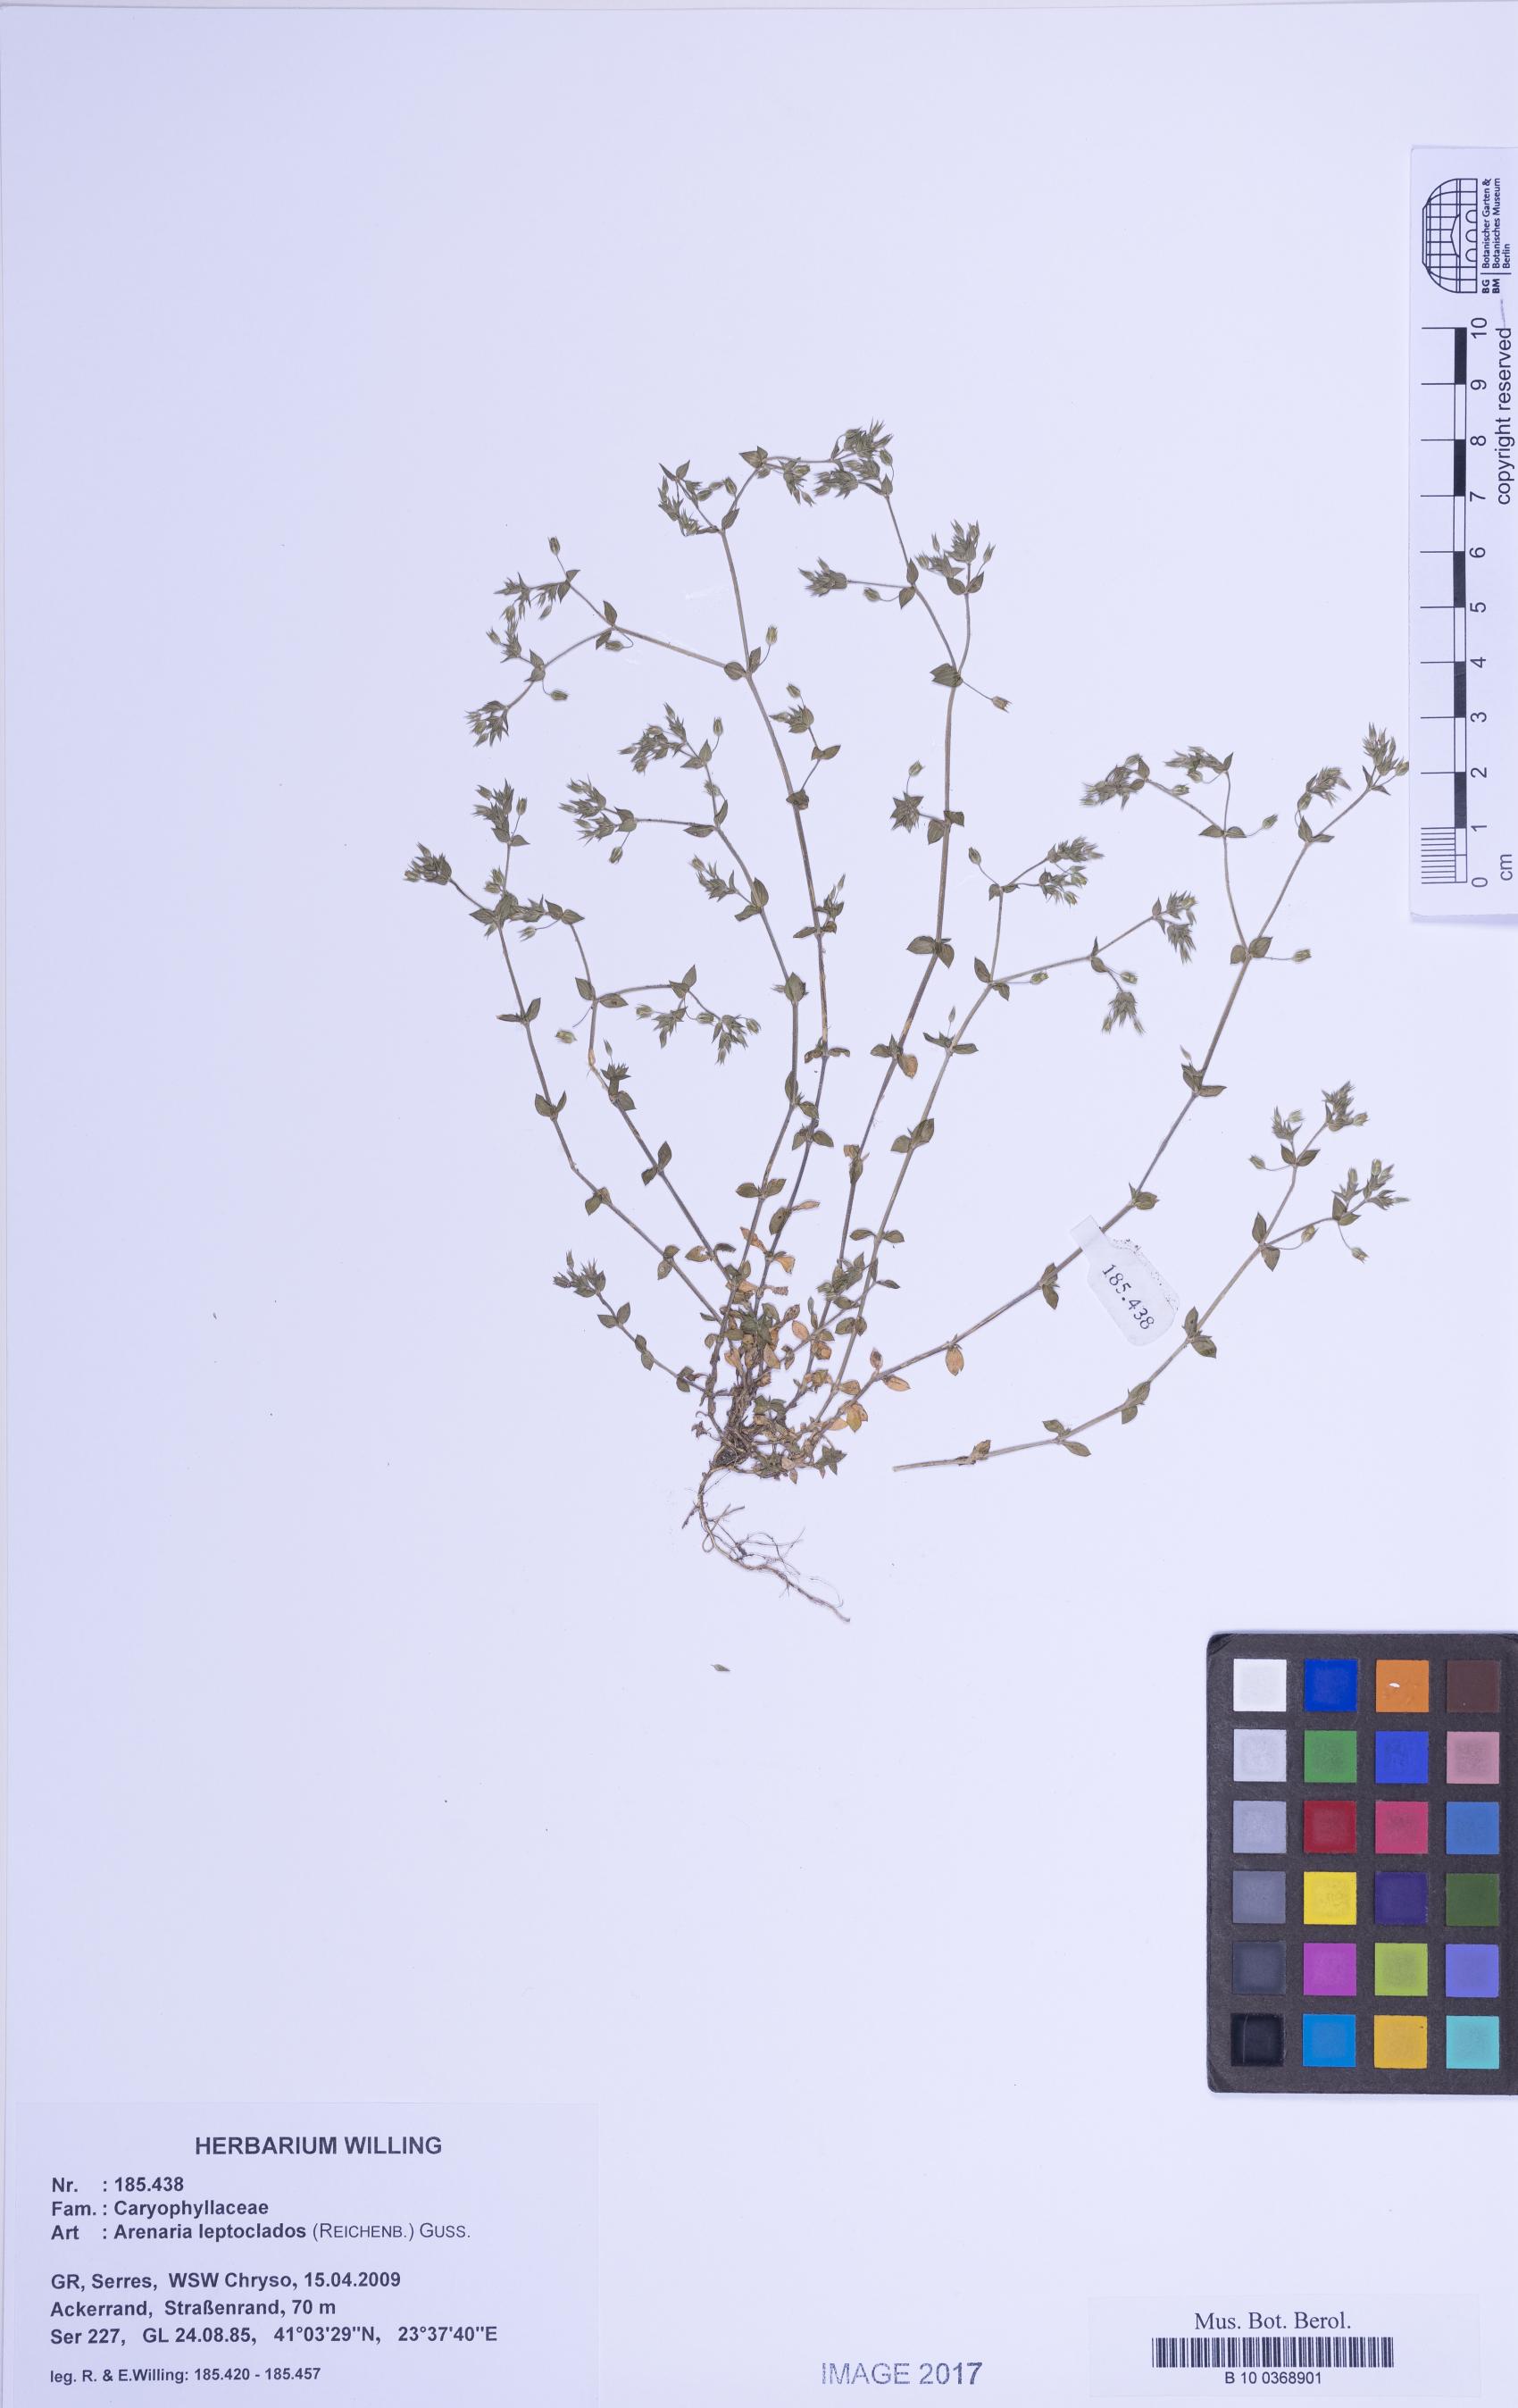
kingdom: Plantae
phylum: Tracheophyta
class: Magnoliopsida
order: Caryophyllales
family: Caryophyllaceae
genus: Arenaria
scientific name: Arenaria leptoclados
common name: Thyme-leaved sandwort
